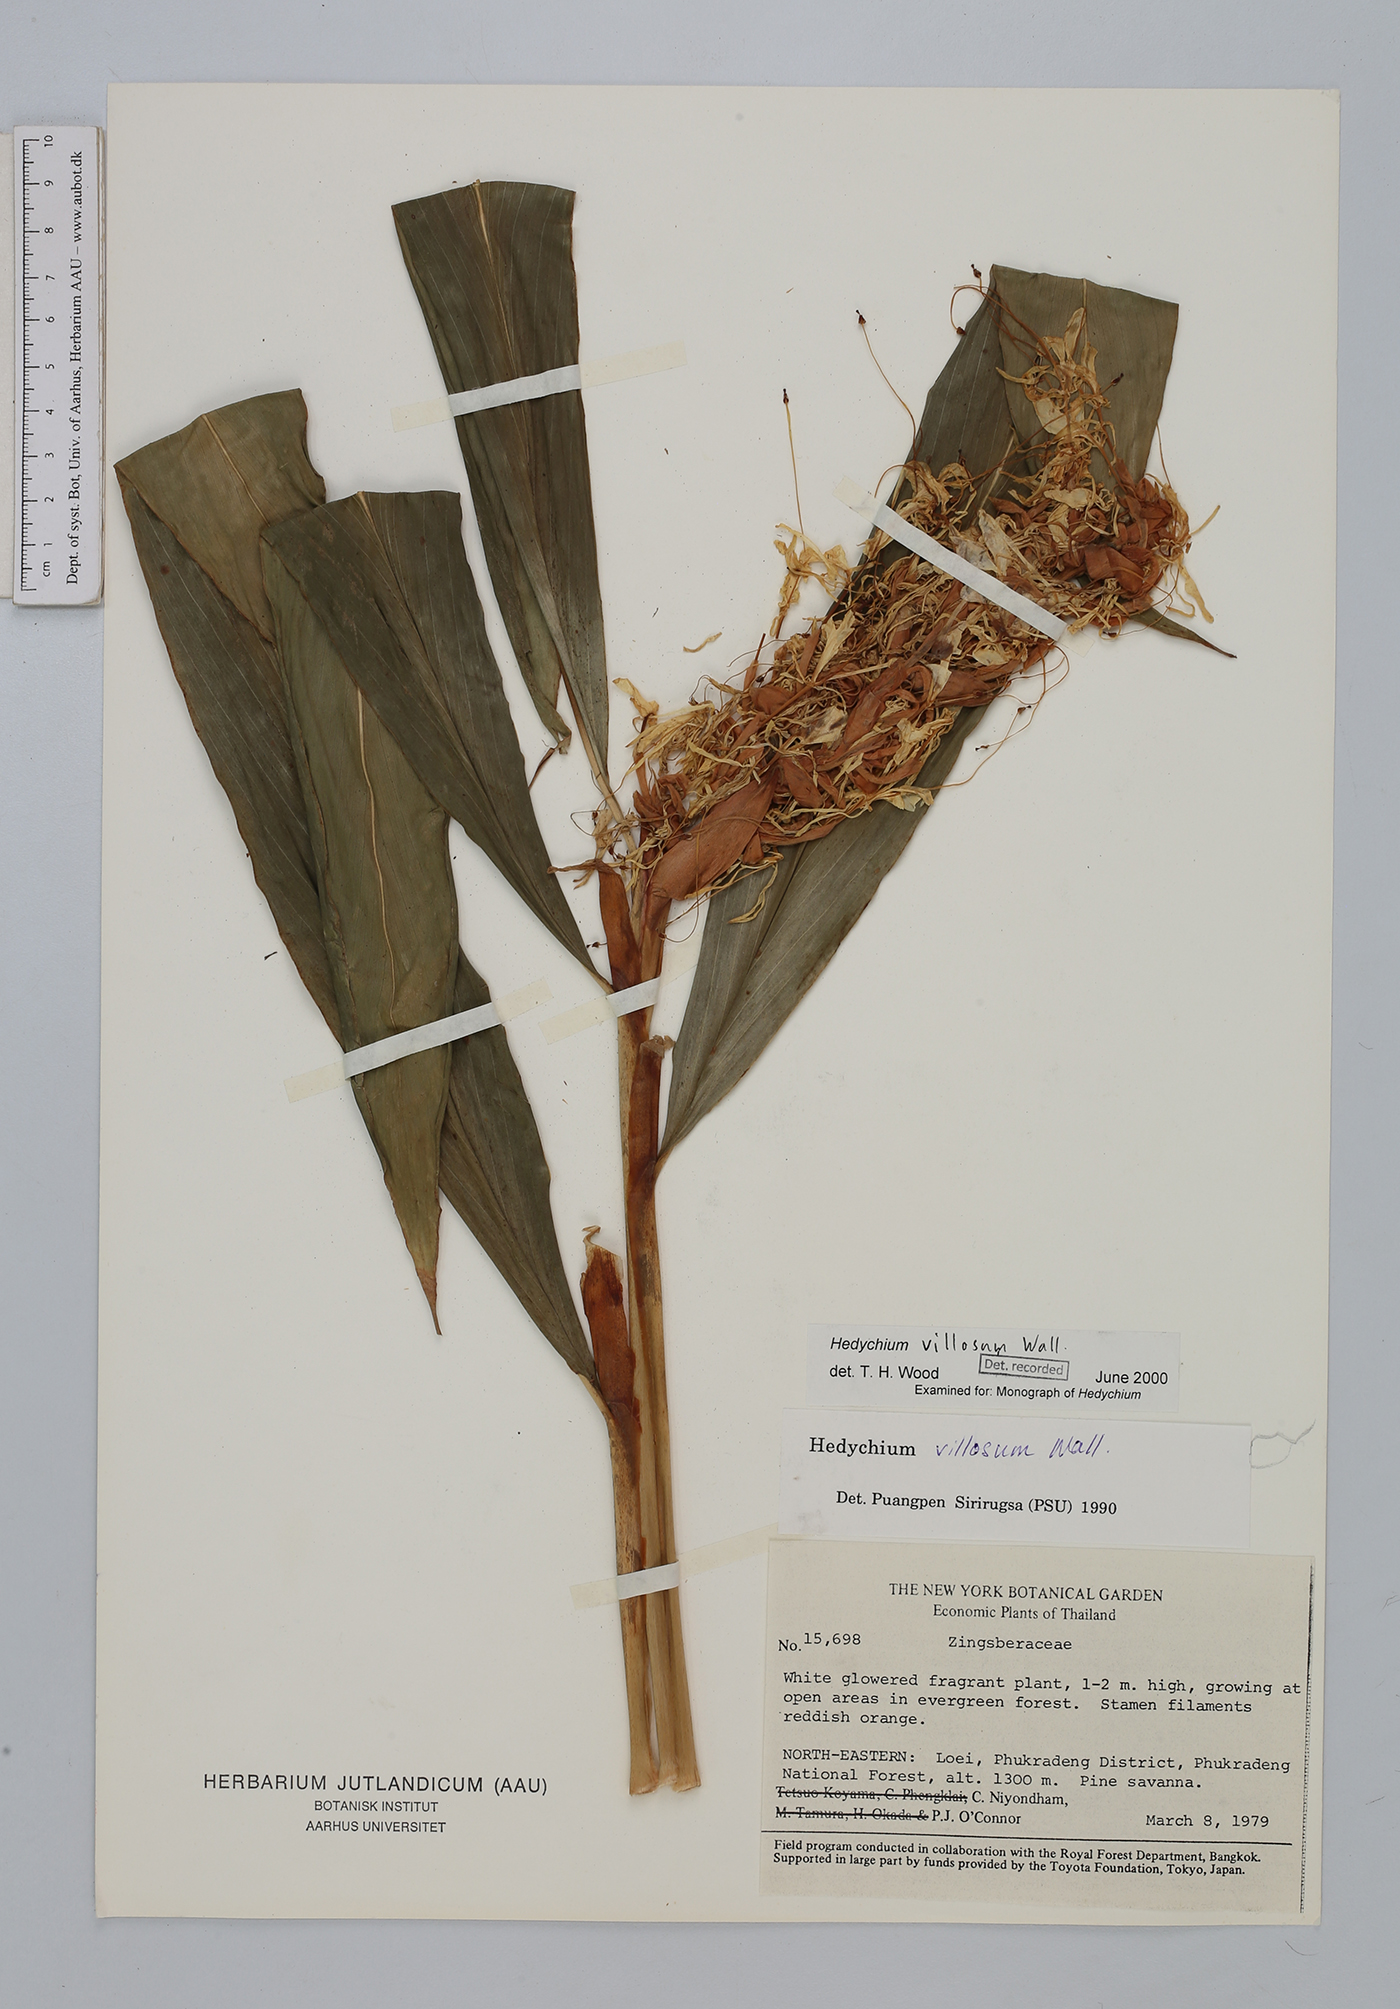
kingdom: Plantae
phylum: Tracheophyta
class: Liliopsida
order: Zingiberales
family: Zingiberaceae
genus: Hedychium
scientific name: Hedychium villosum
